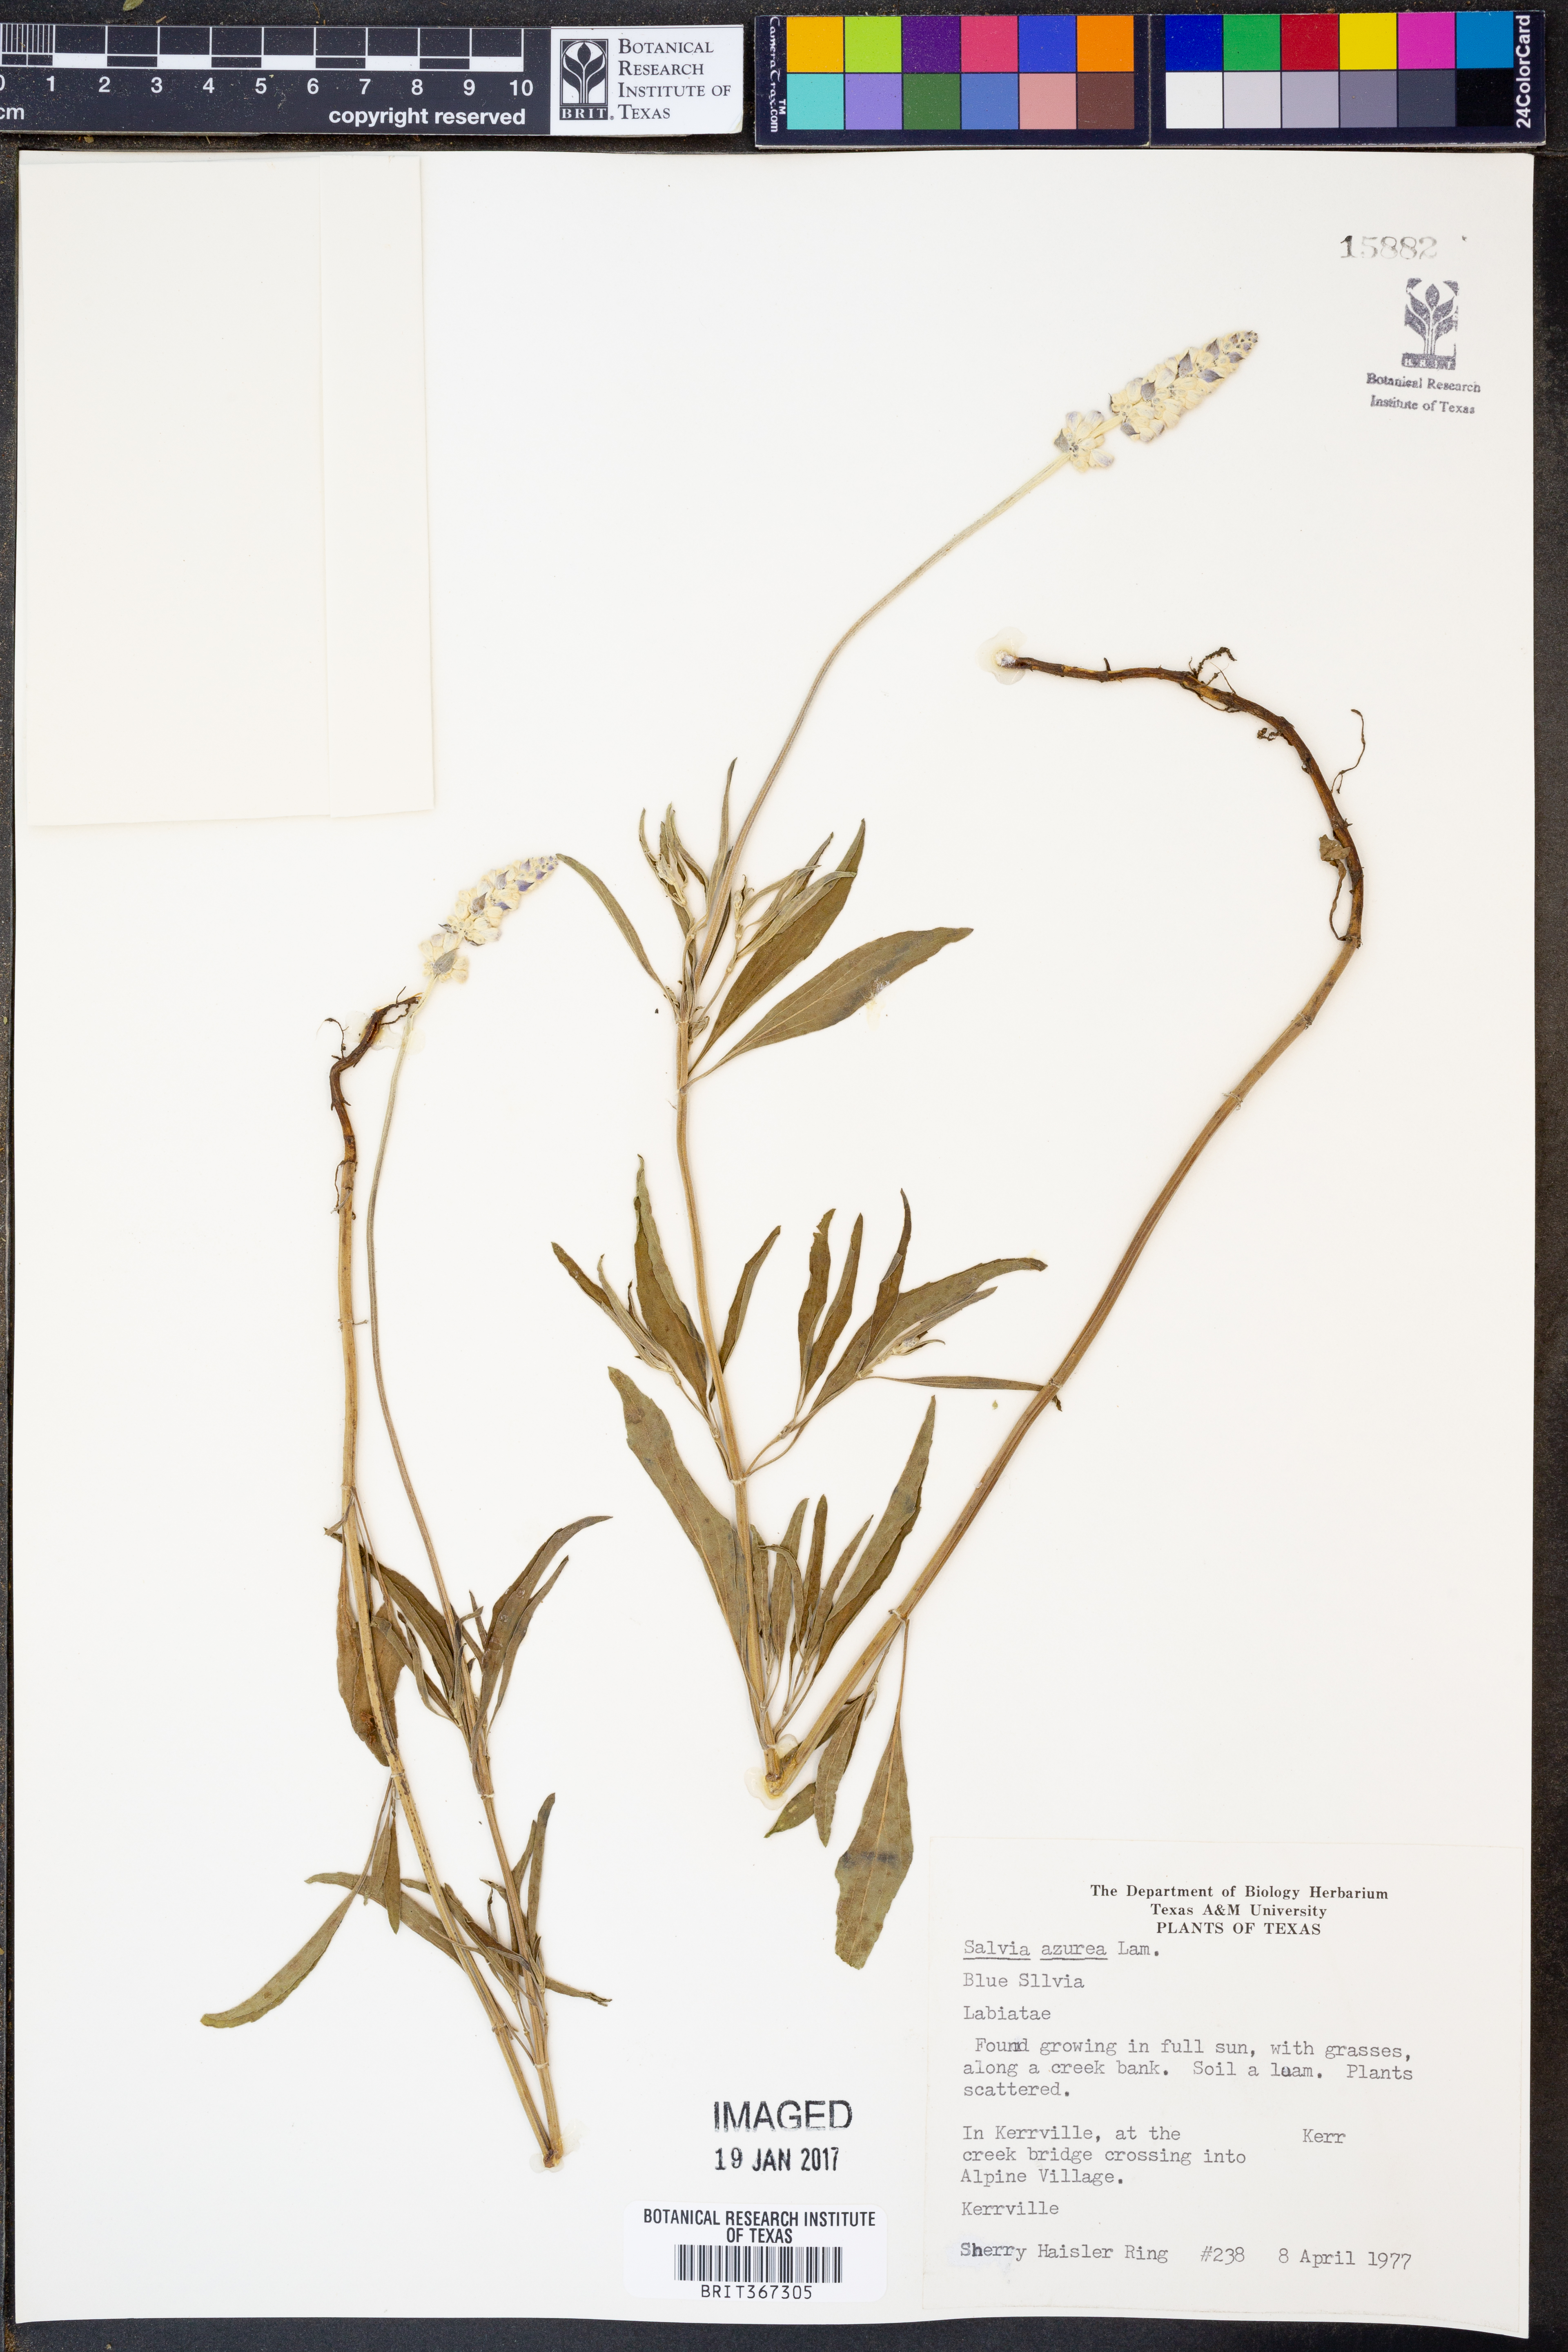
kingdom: Plantae
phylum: Tracheophyta
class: Magnoliopsida
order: Lamiales
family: Lamiaceae
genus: Salvia
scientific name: Salvia azurea
